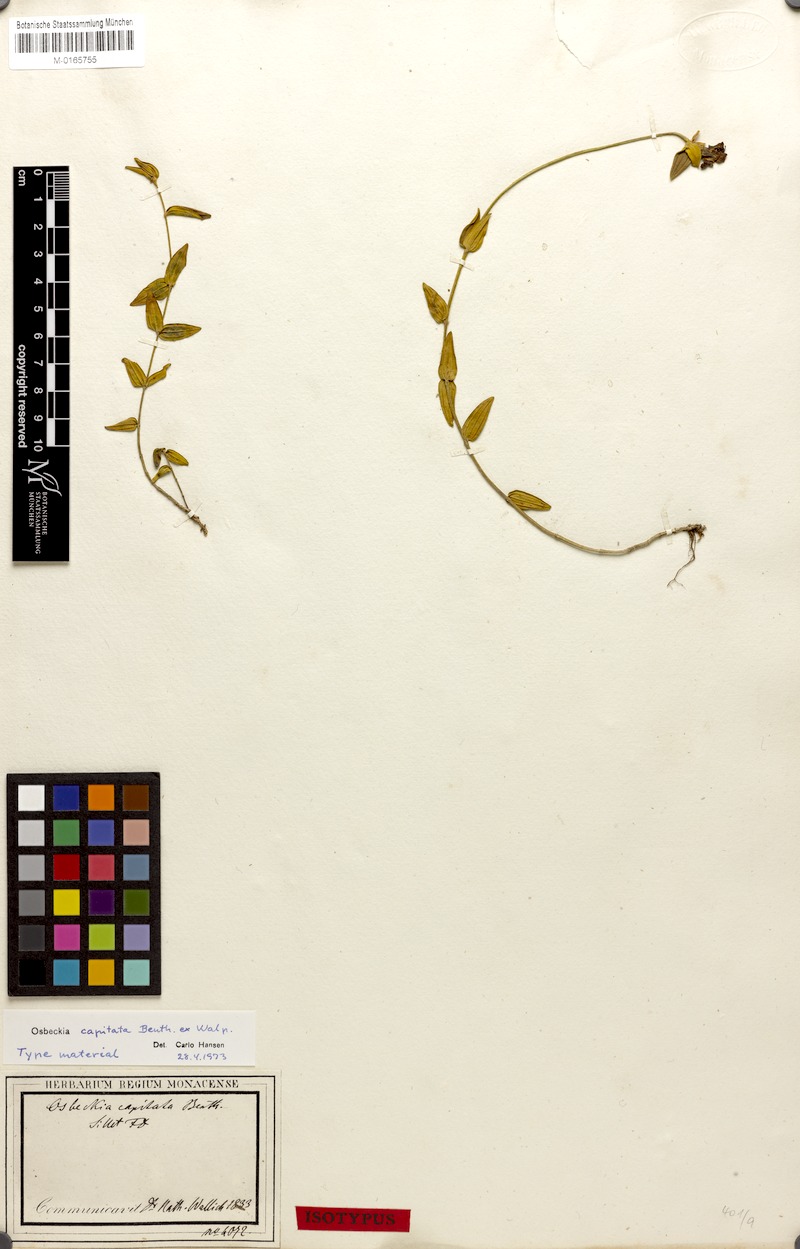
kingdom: Plantae
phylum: Tracheophyta
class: Magnoliopsida
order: Myrtales
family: Melastomataceae
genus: Osbeckia
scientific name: Osbeckia capitata
